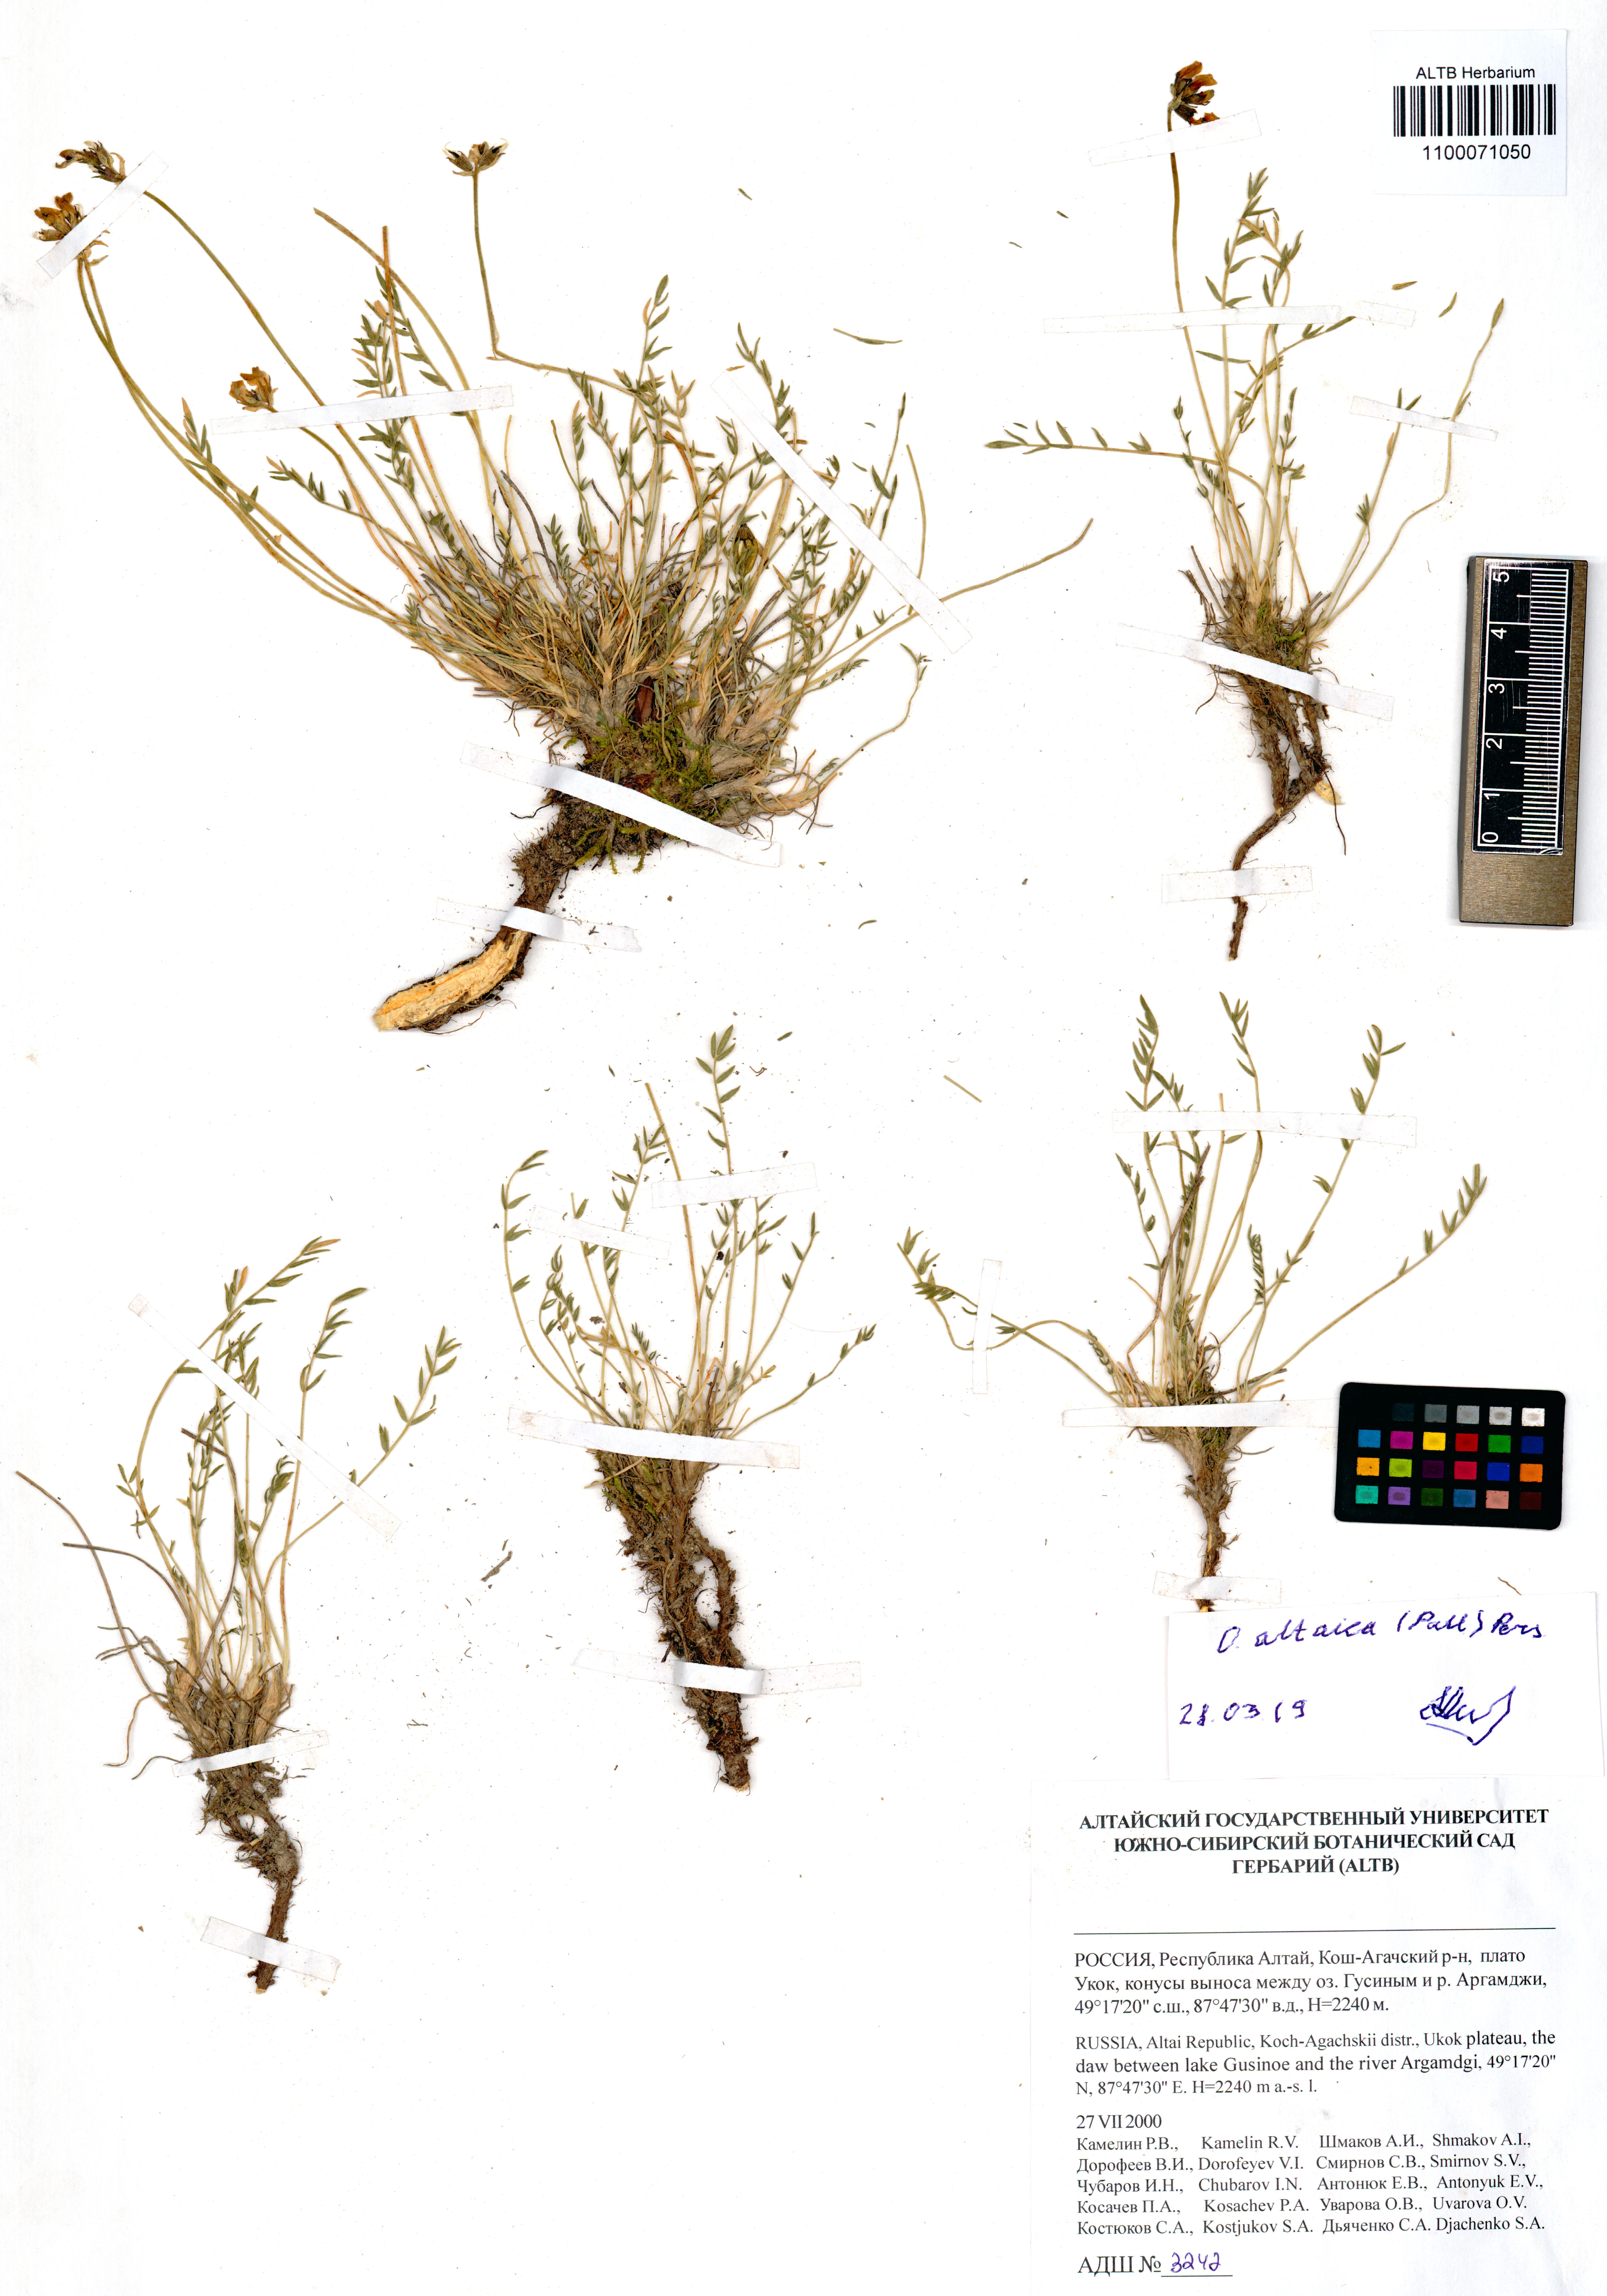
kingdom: Plantae
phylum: Tracheophyta
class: Magnoliopsida
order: Fabales
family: Fabaceae
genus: Oxytropis
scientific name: Oxytropis altaica
